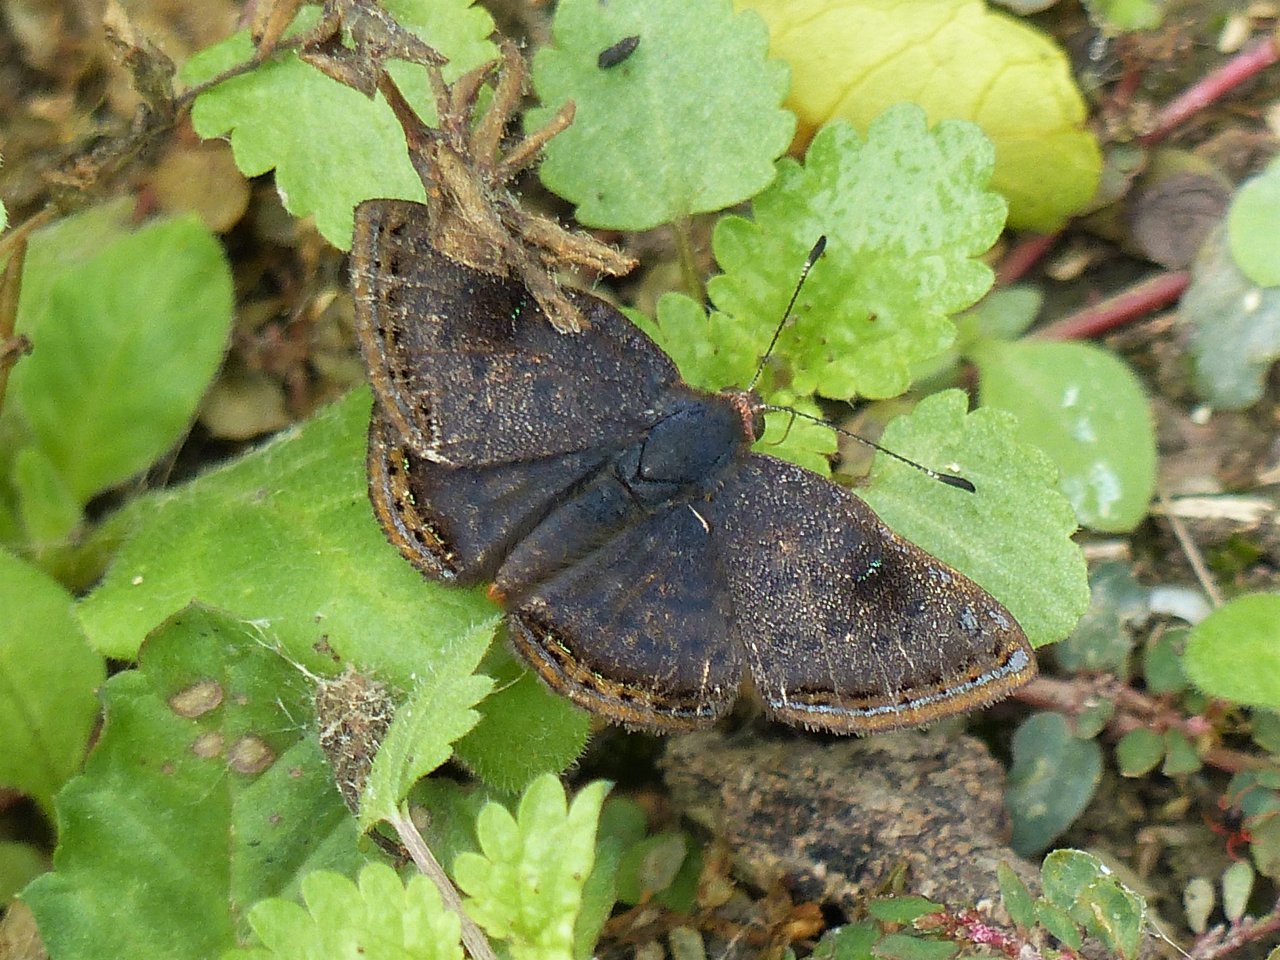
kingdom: Animalia
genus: Caria
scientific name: Caria ino
